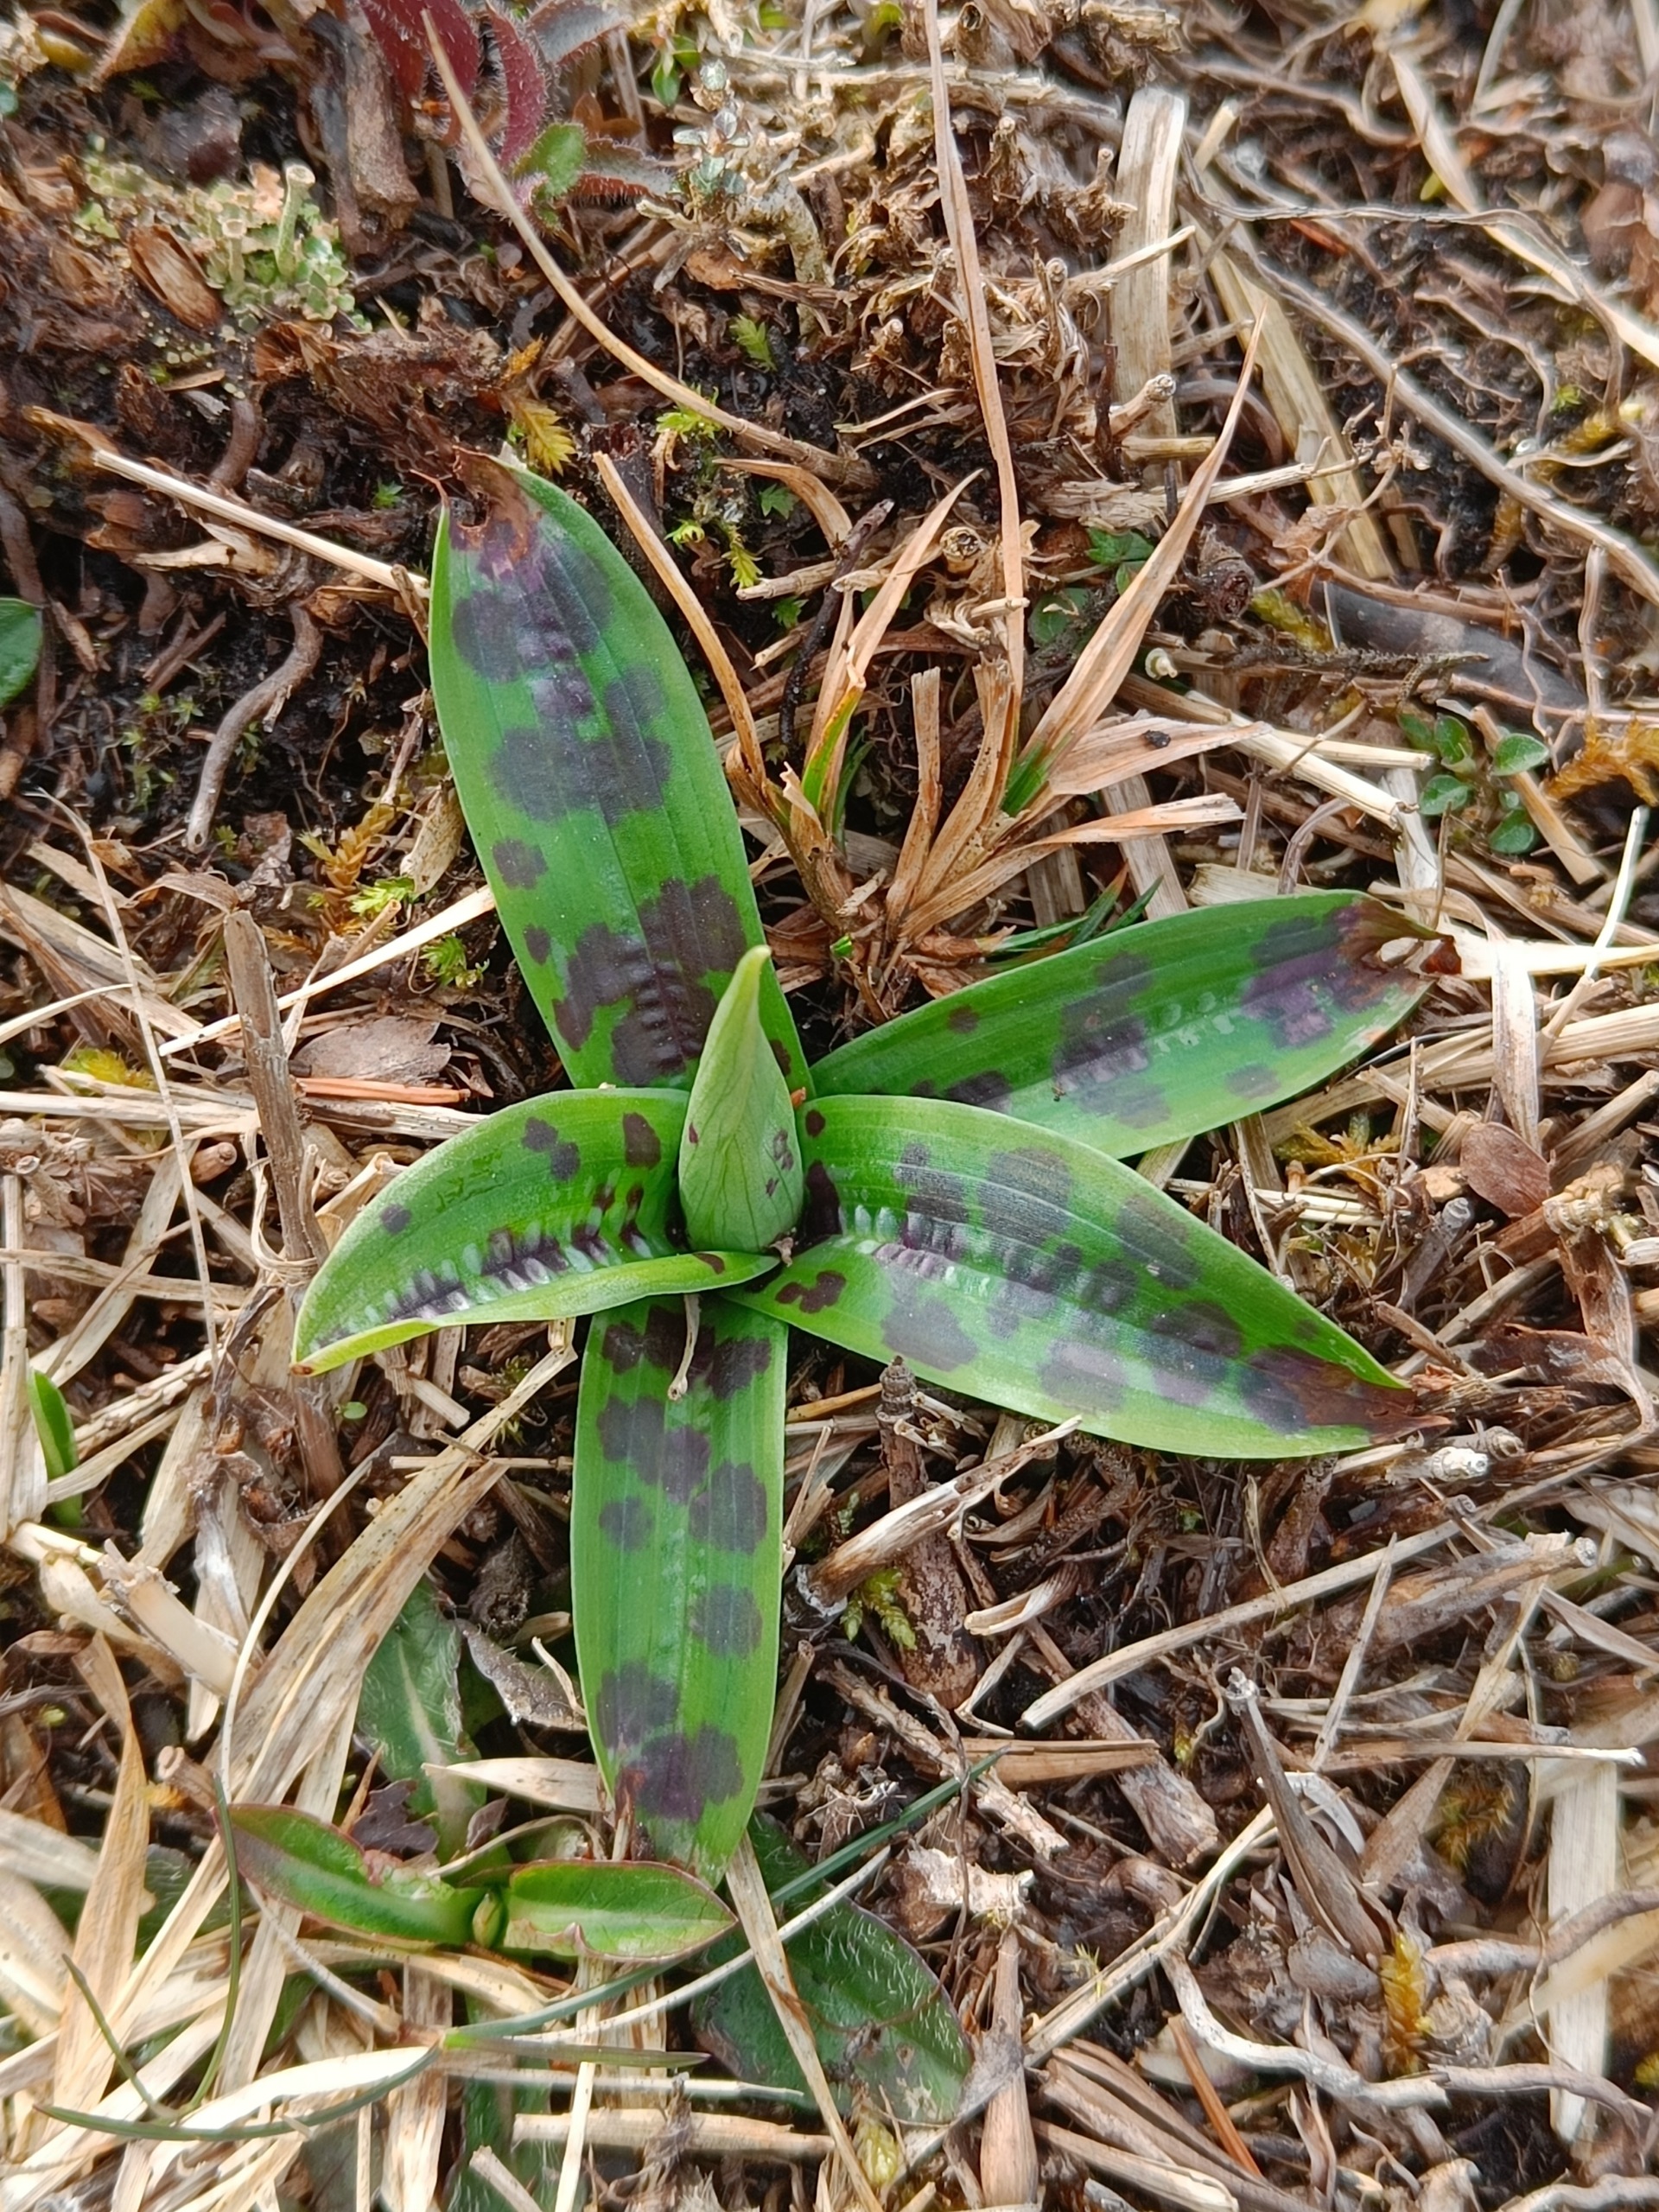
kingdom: Plantae
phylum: Tracheophyta
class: Liliopsida
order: Asparagales
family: Orchidaceae
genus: Orchis
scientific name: Orchis mascula
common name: Tyndakset gøgeurt
